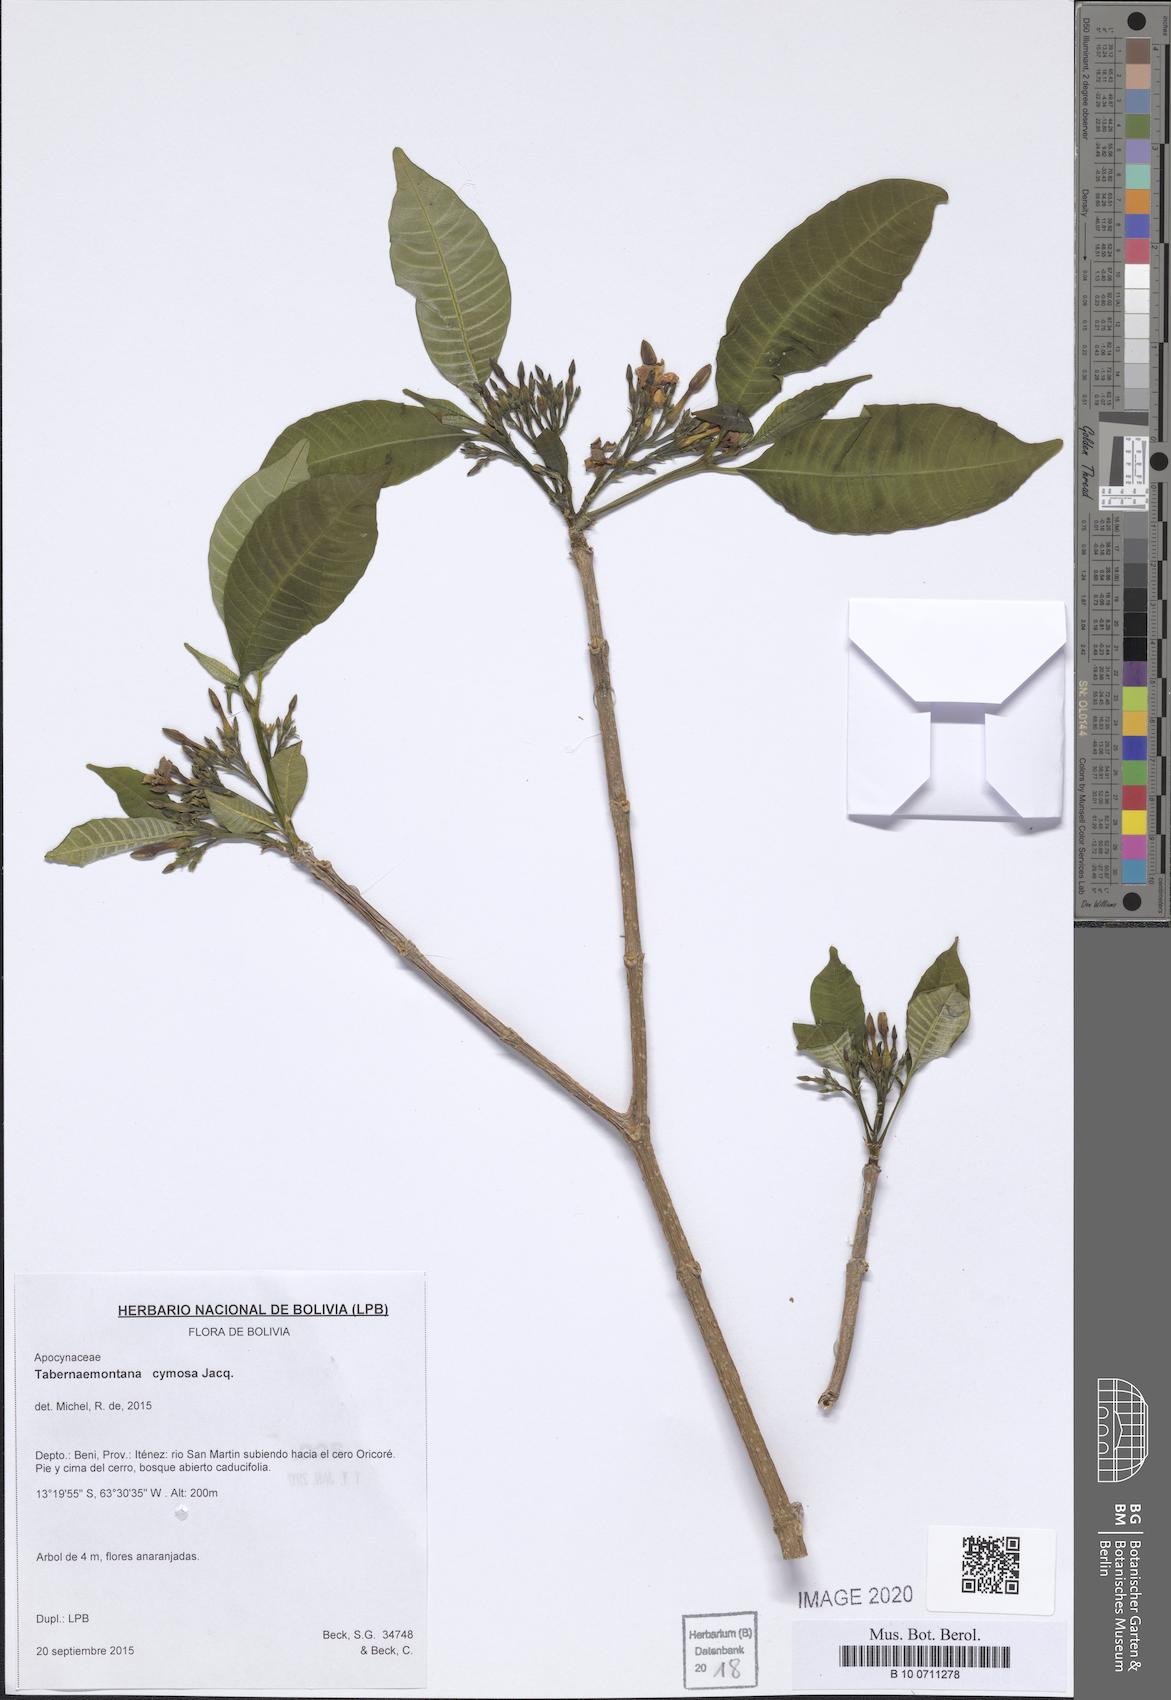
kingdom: Plantae
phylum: Tracheophyta
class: Magnoliopsida
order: Gentianales
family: Apocynaceae
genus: Tabernaemontana
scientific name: Tabernaemontana cymosa
